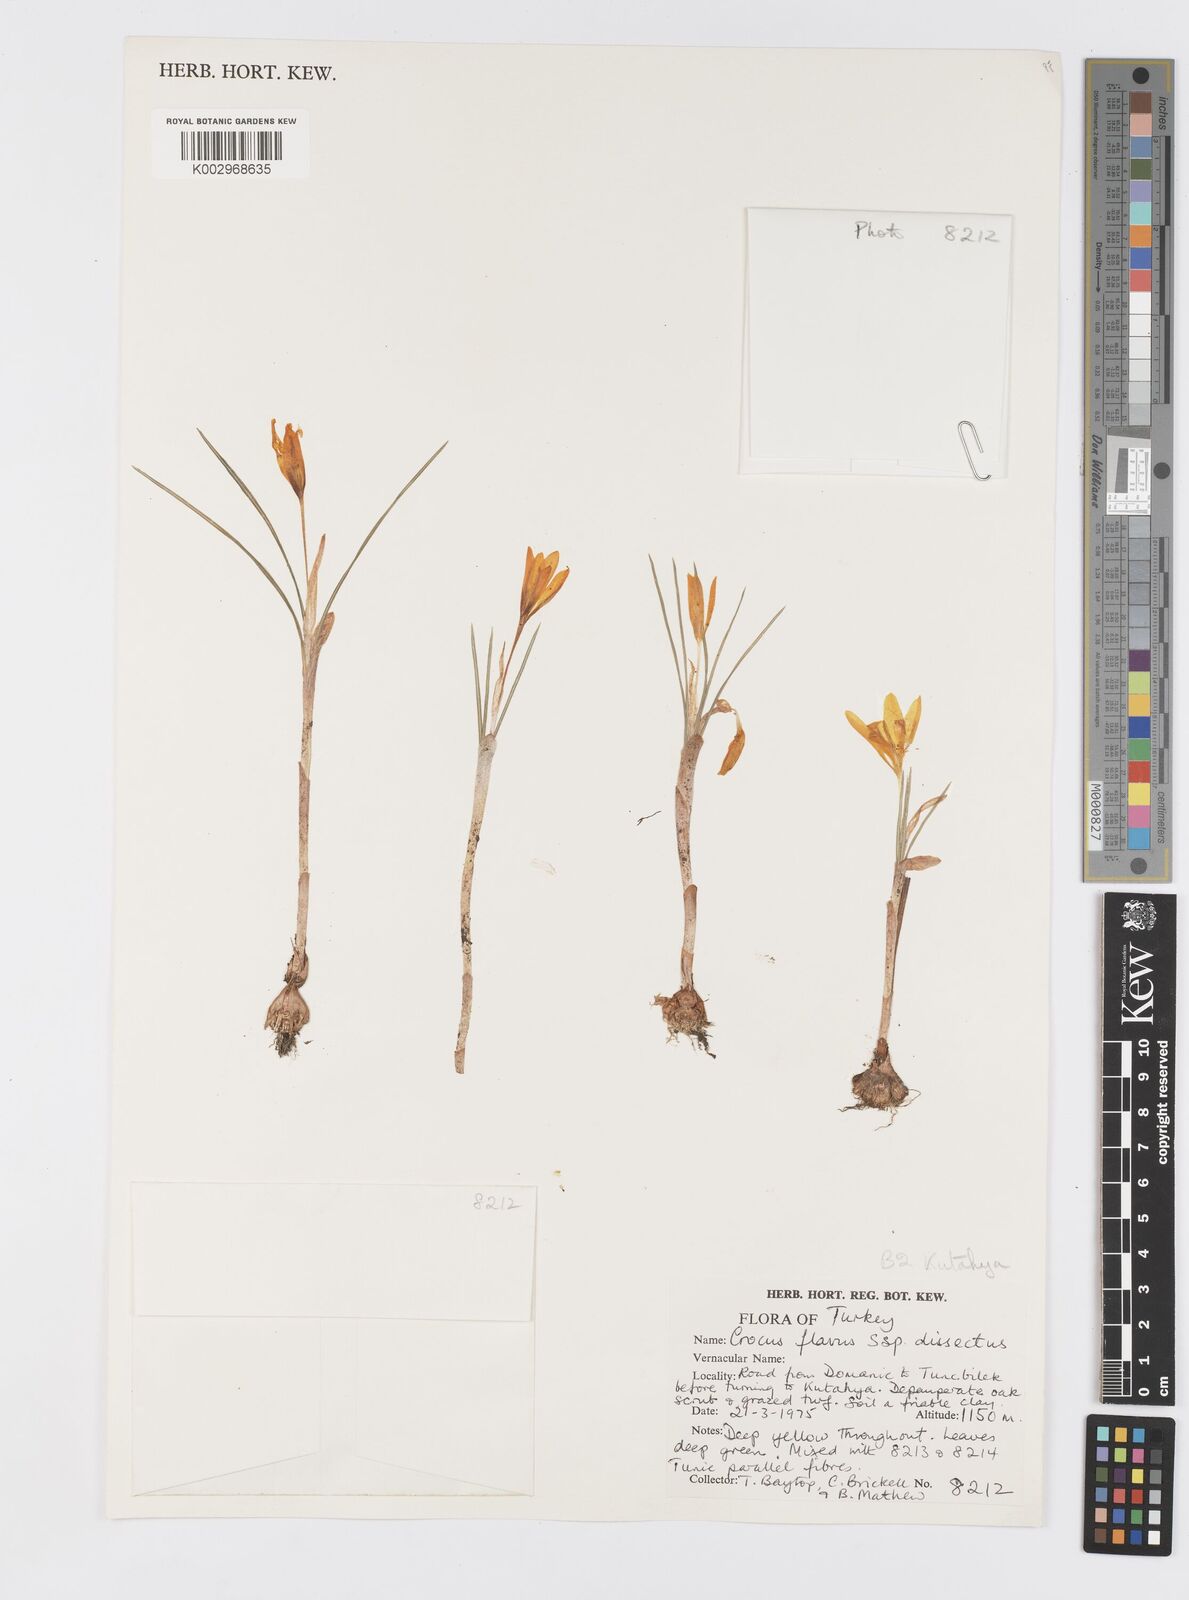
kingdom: Plantae
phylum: Tracheophyta
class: Liliopsida
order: Asparagales
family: Iridaceae
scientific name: Iridaceae
